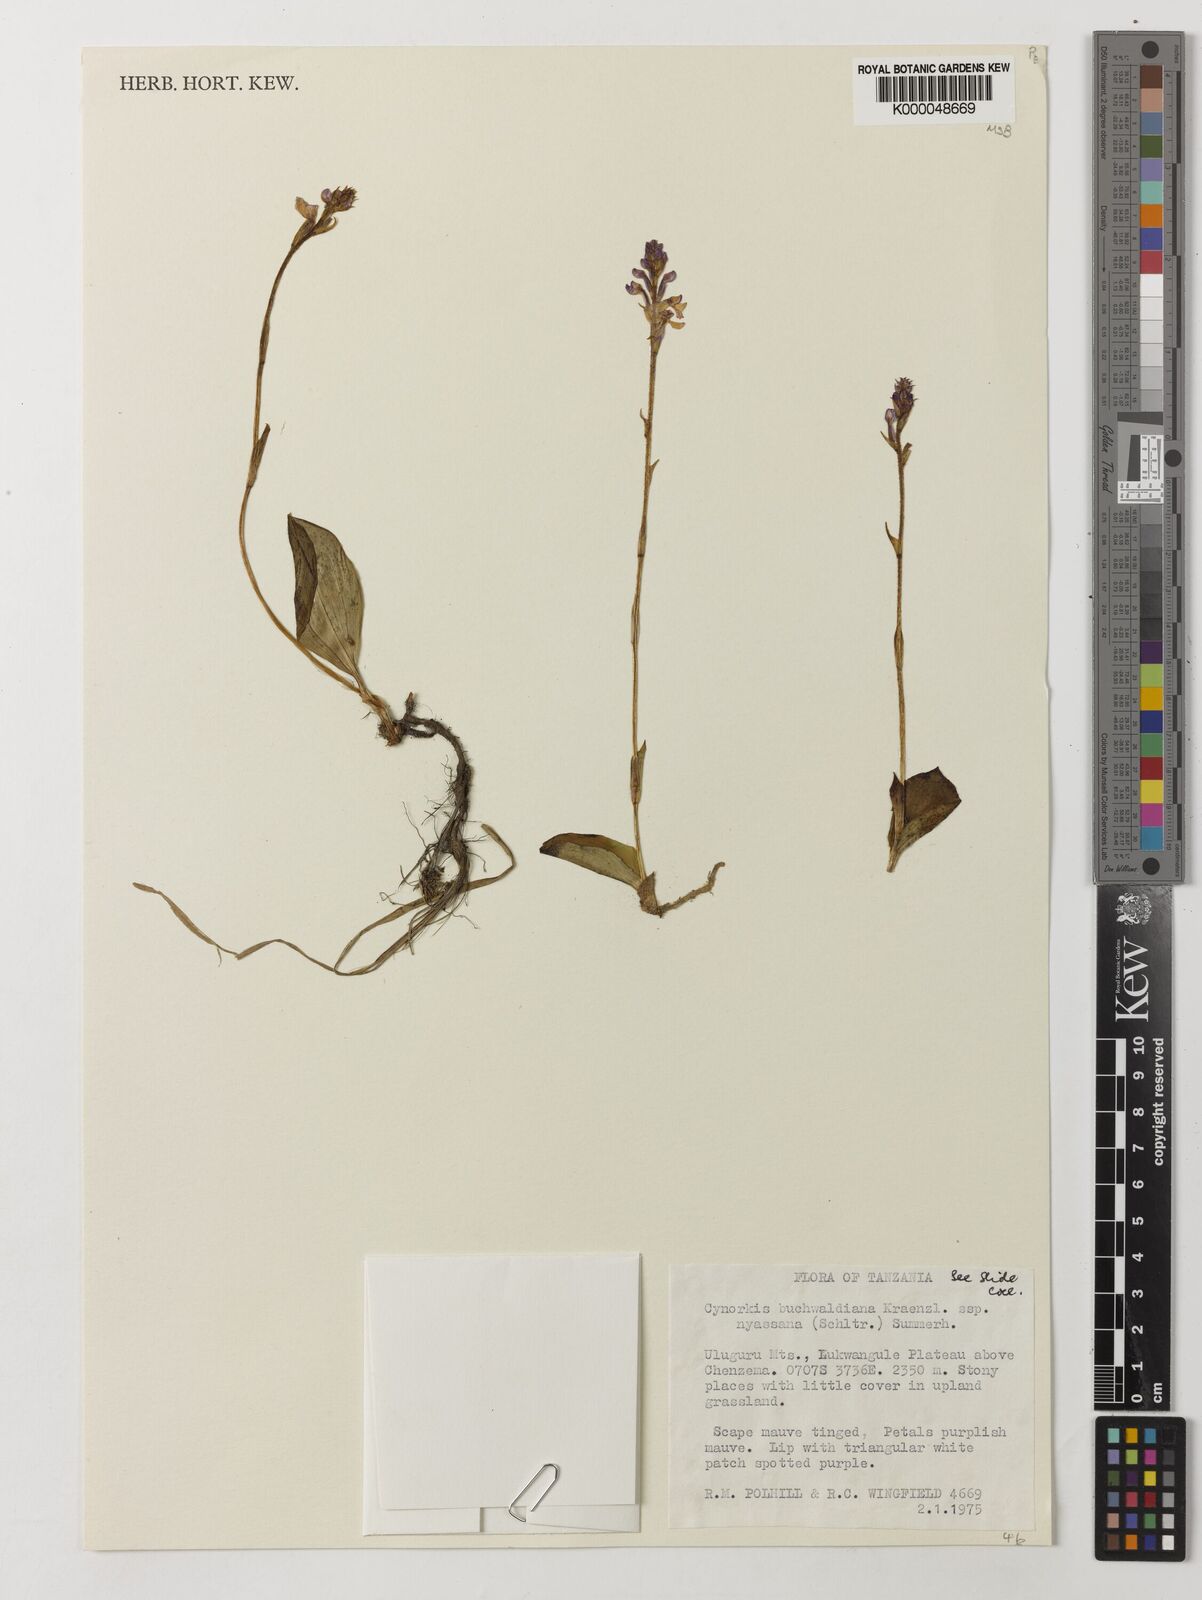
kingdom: Plantae
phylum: Tracheophyta
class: Liliopsida
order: Asparagales
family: Orchidaceae
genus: Cynorkis
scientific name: Cynorkis buchananii
